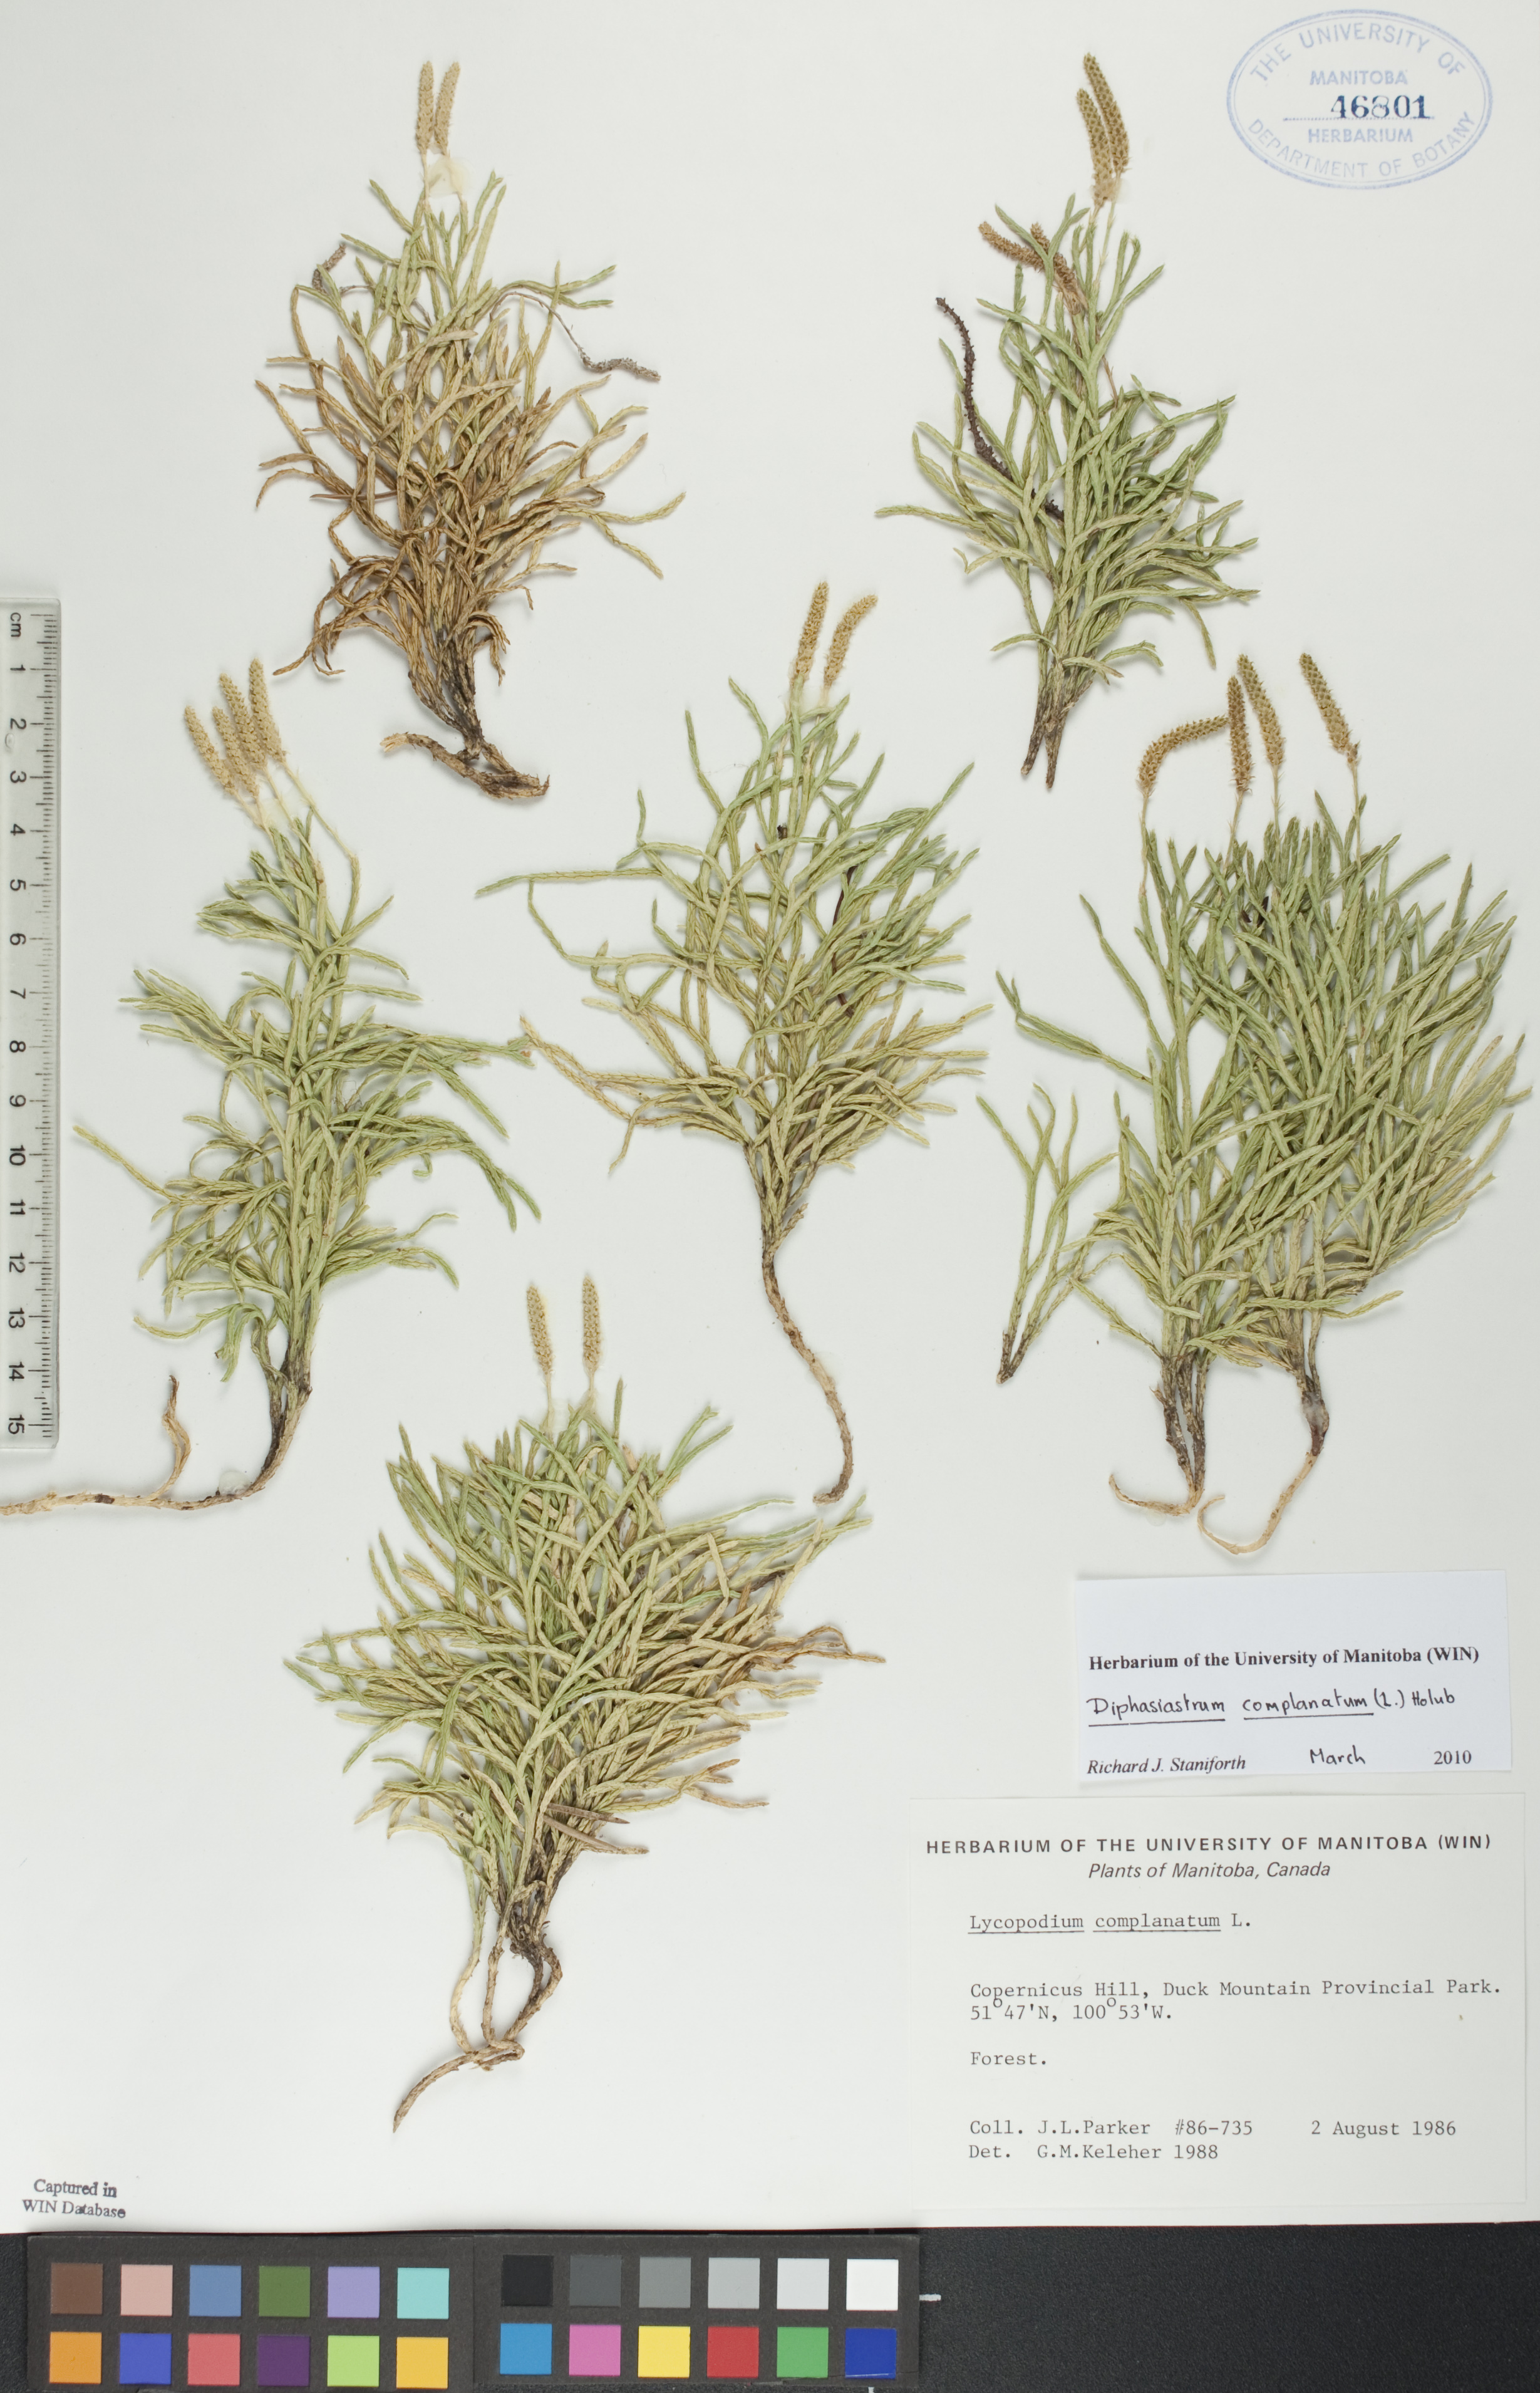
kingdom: Plantae
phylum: Tracheophyta
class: Lycopodiopsida
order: Lycopodiales
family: Lycopodiaceae
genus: Diphasiastrum
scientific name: Diphasiastrum complanatum
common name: Northern running-pine
